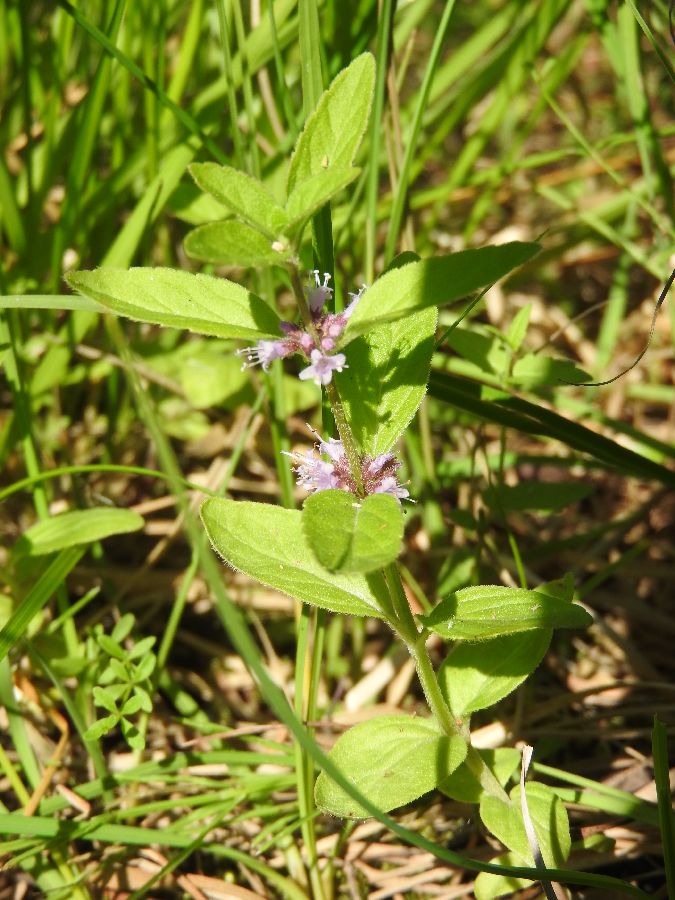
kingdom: Plantae
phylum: Tracheophyta
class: Magnoliopsida
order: Lamiales
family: Lamiaceae
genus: Mentha
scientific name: Mentha arvensis
